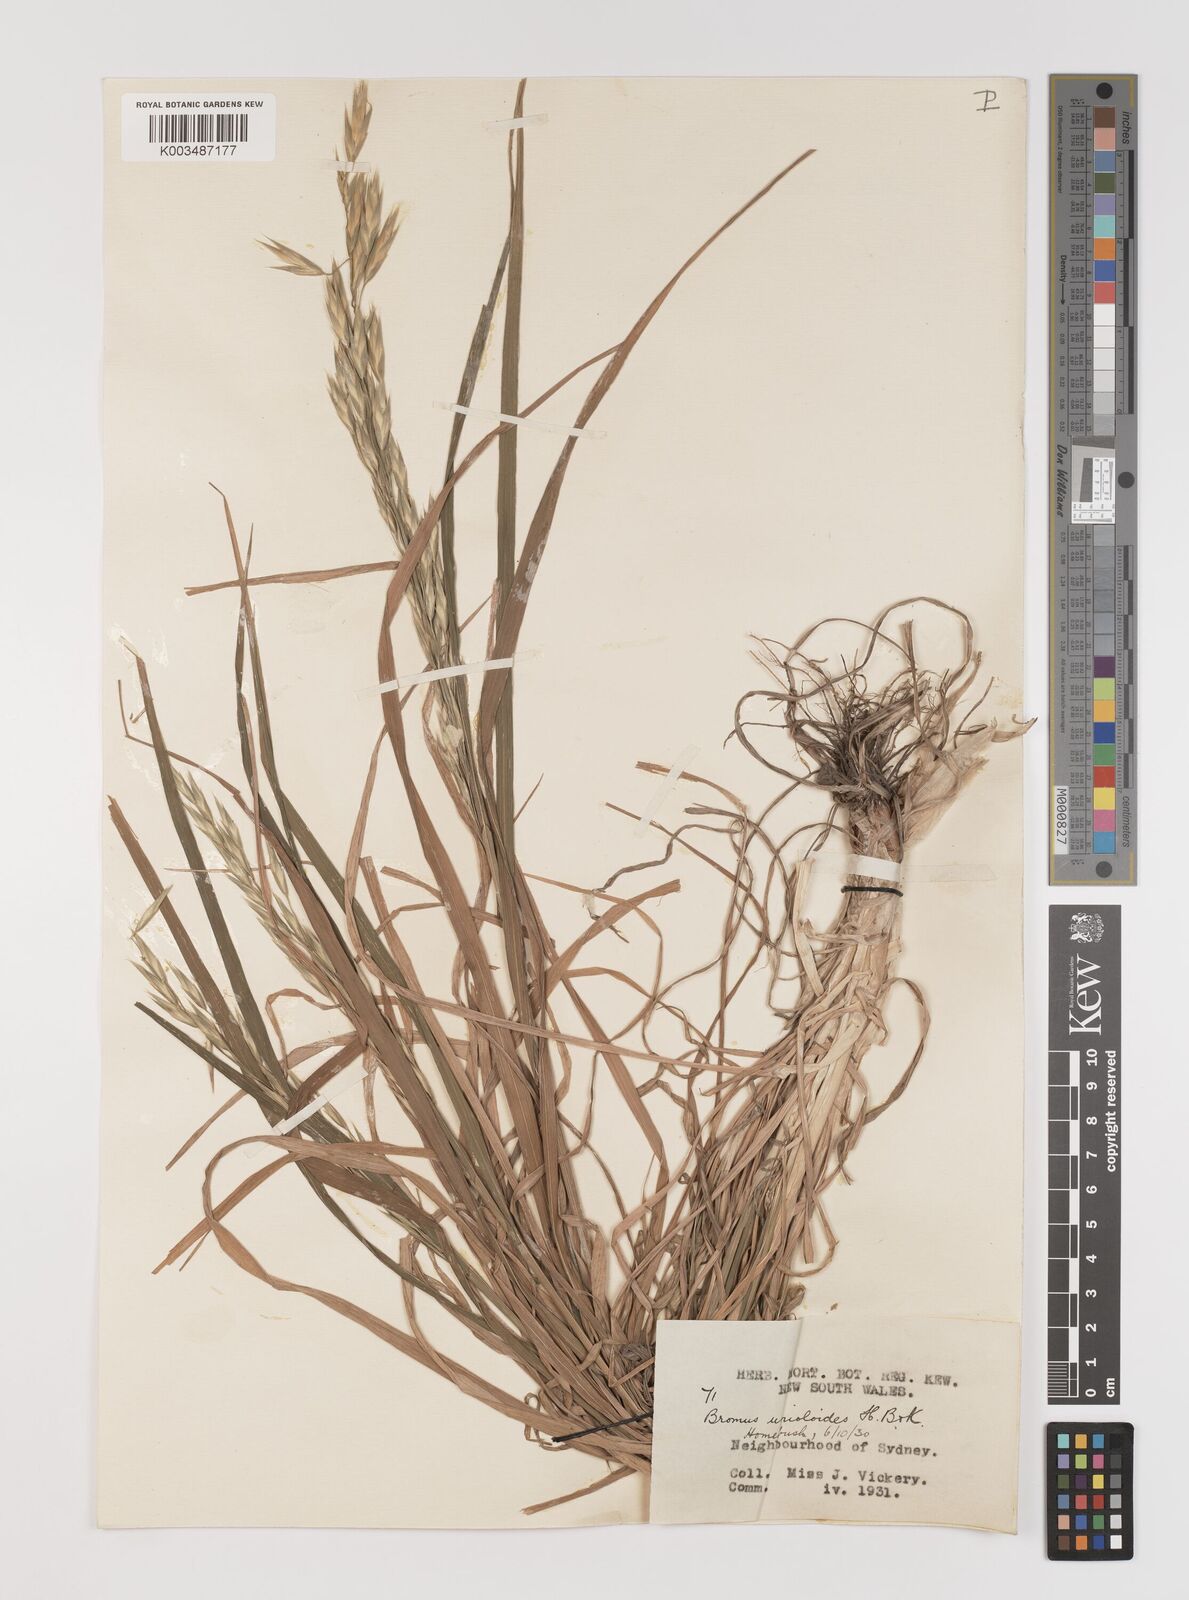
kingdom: Plantae
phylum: Tracheophyta
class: Liliopsida
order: Poales
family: Poaceae
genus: Bromus
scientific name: Bromus catharticus
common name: Rescuegrass
